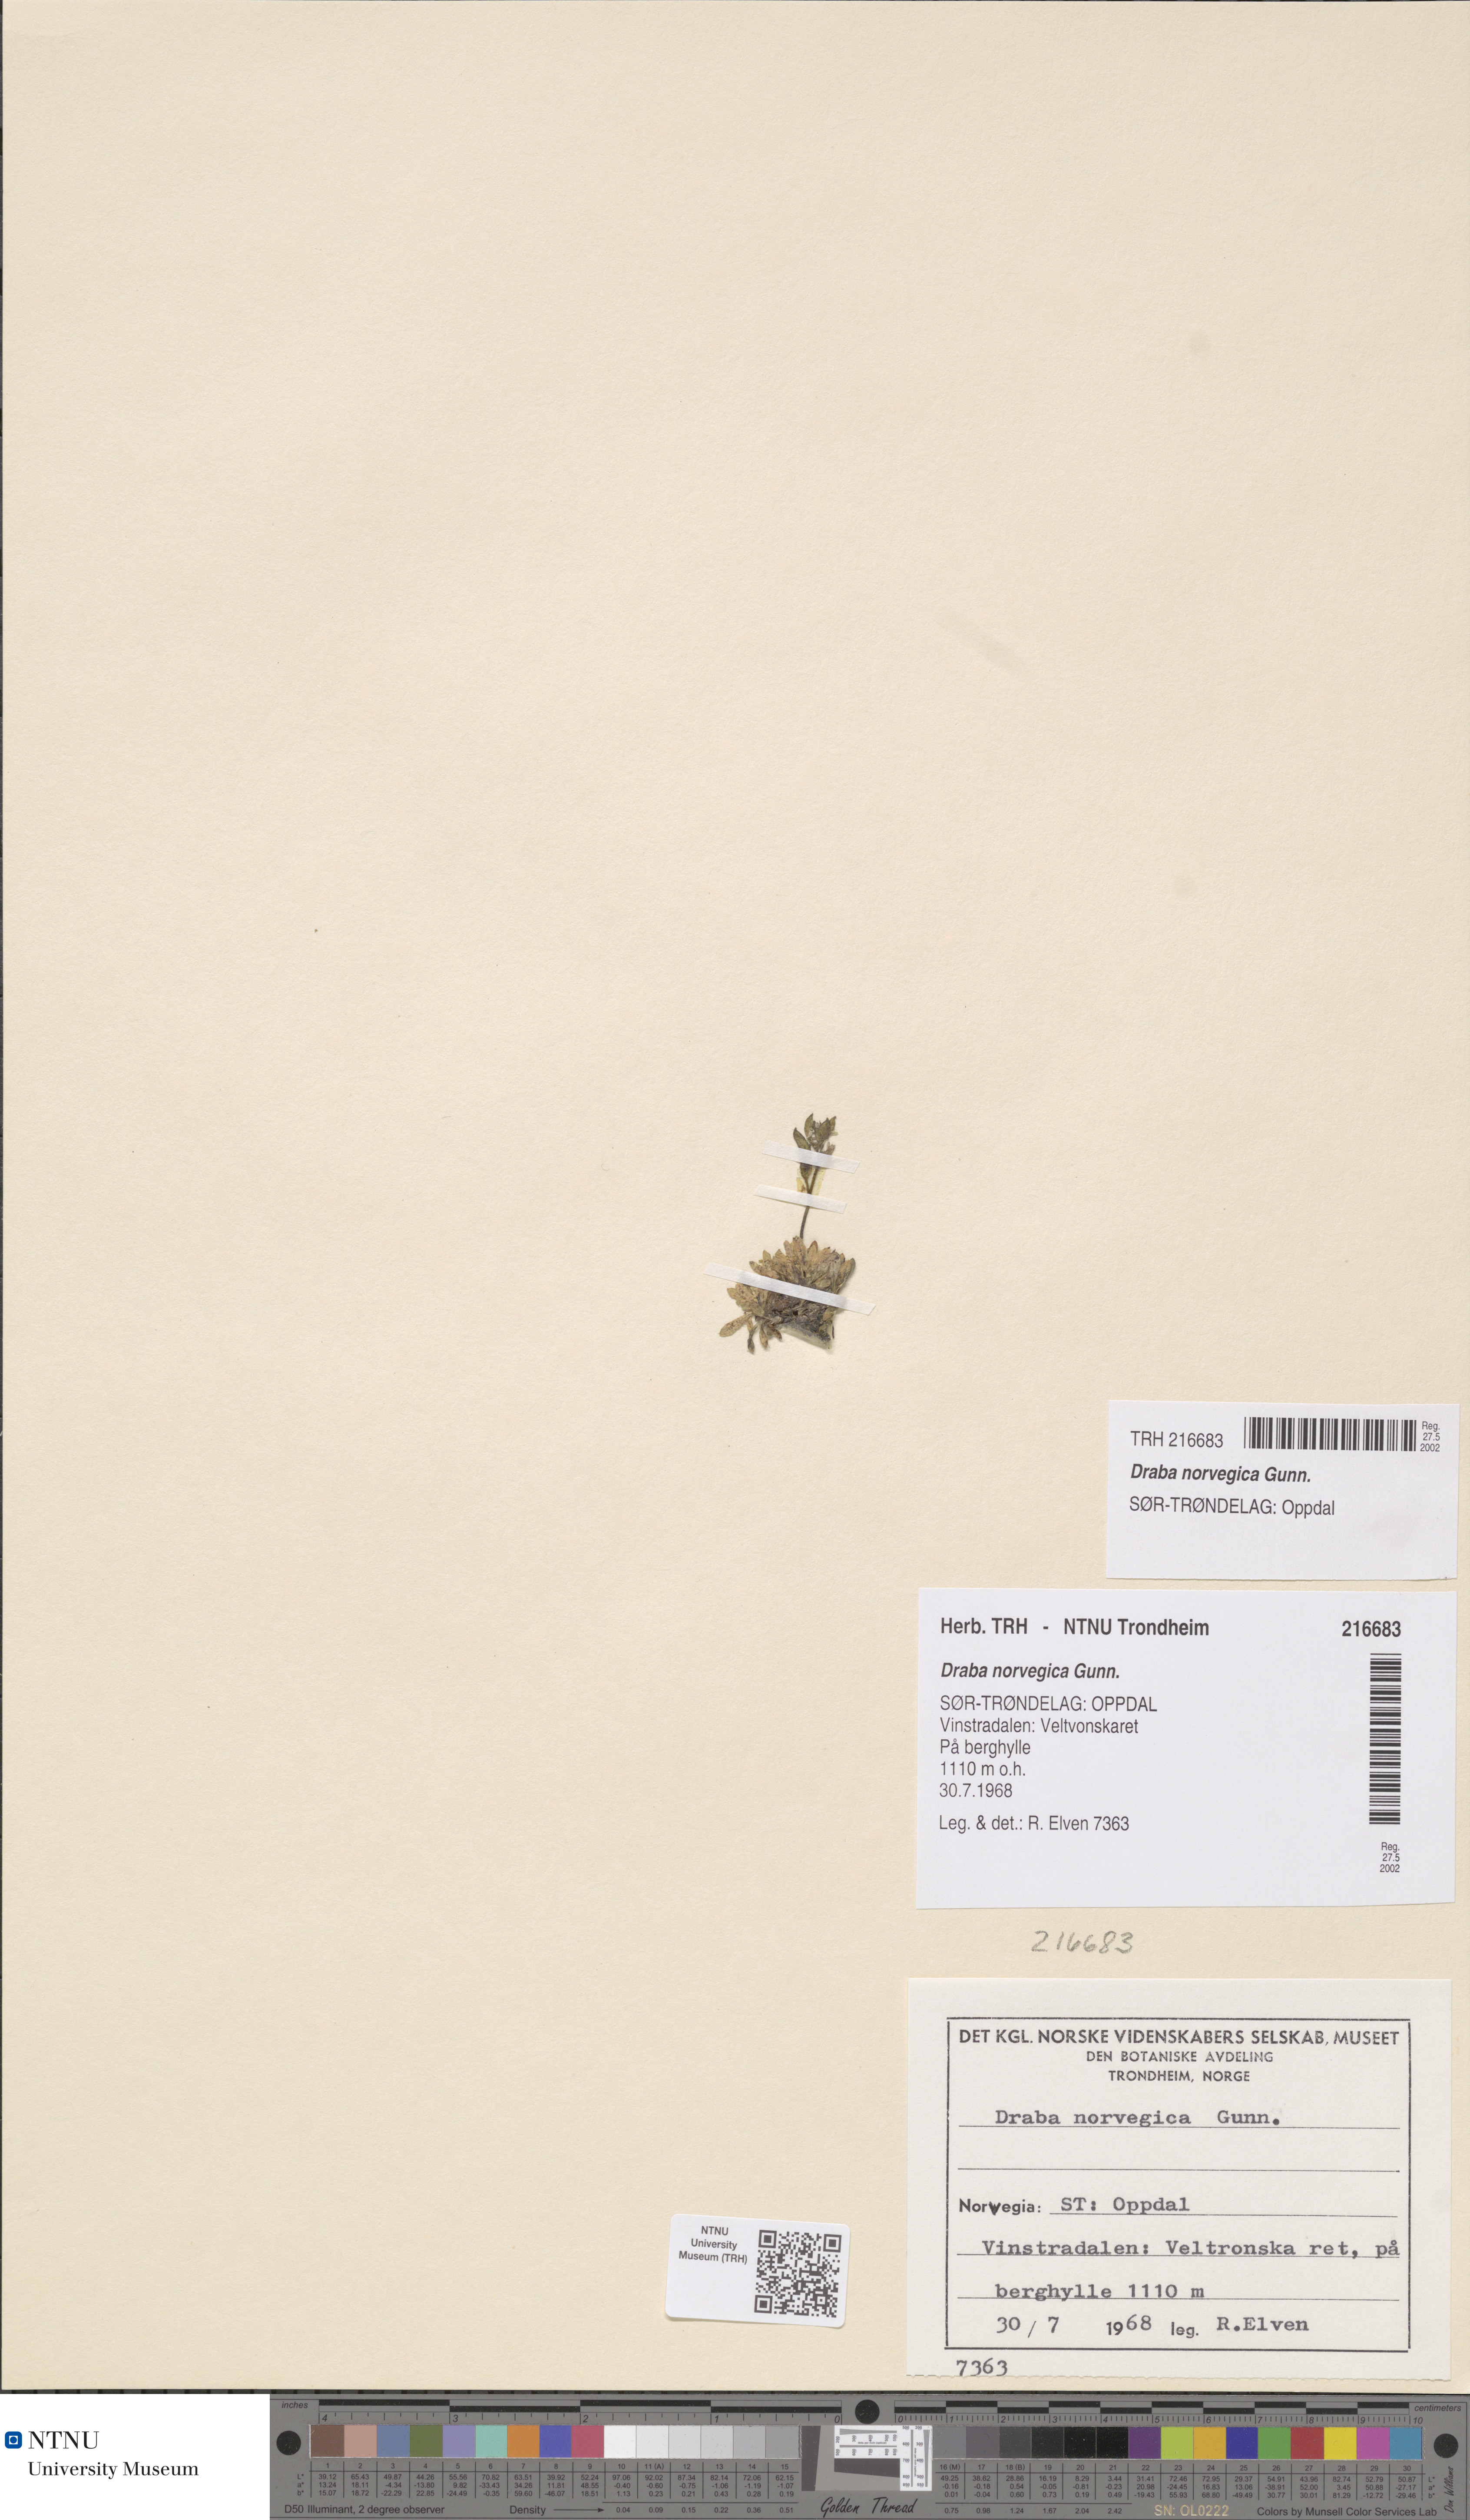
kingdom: Plantae
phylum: Tracheophyta
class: Magnoliopsida
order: Brassicales
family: Brassicaceae
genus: Draba
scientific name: Draba norvegica
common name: Rock whitlowgrass
